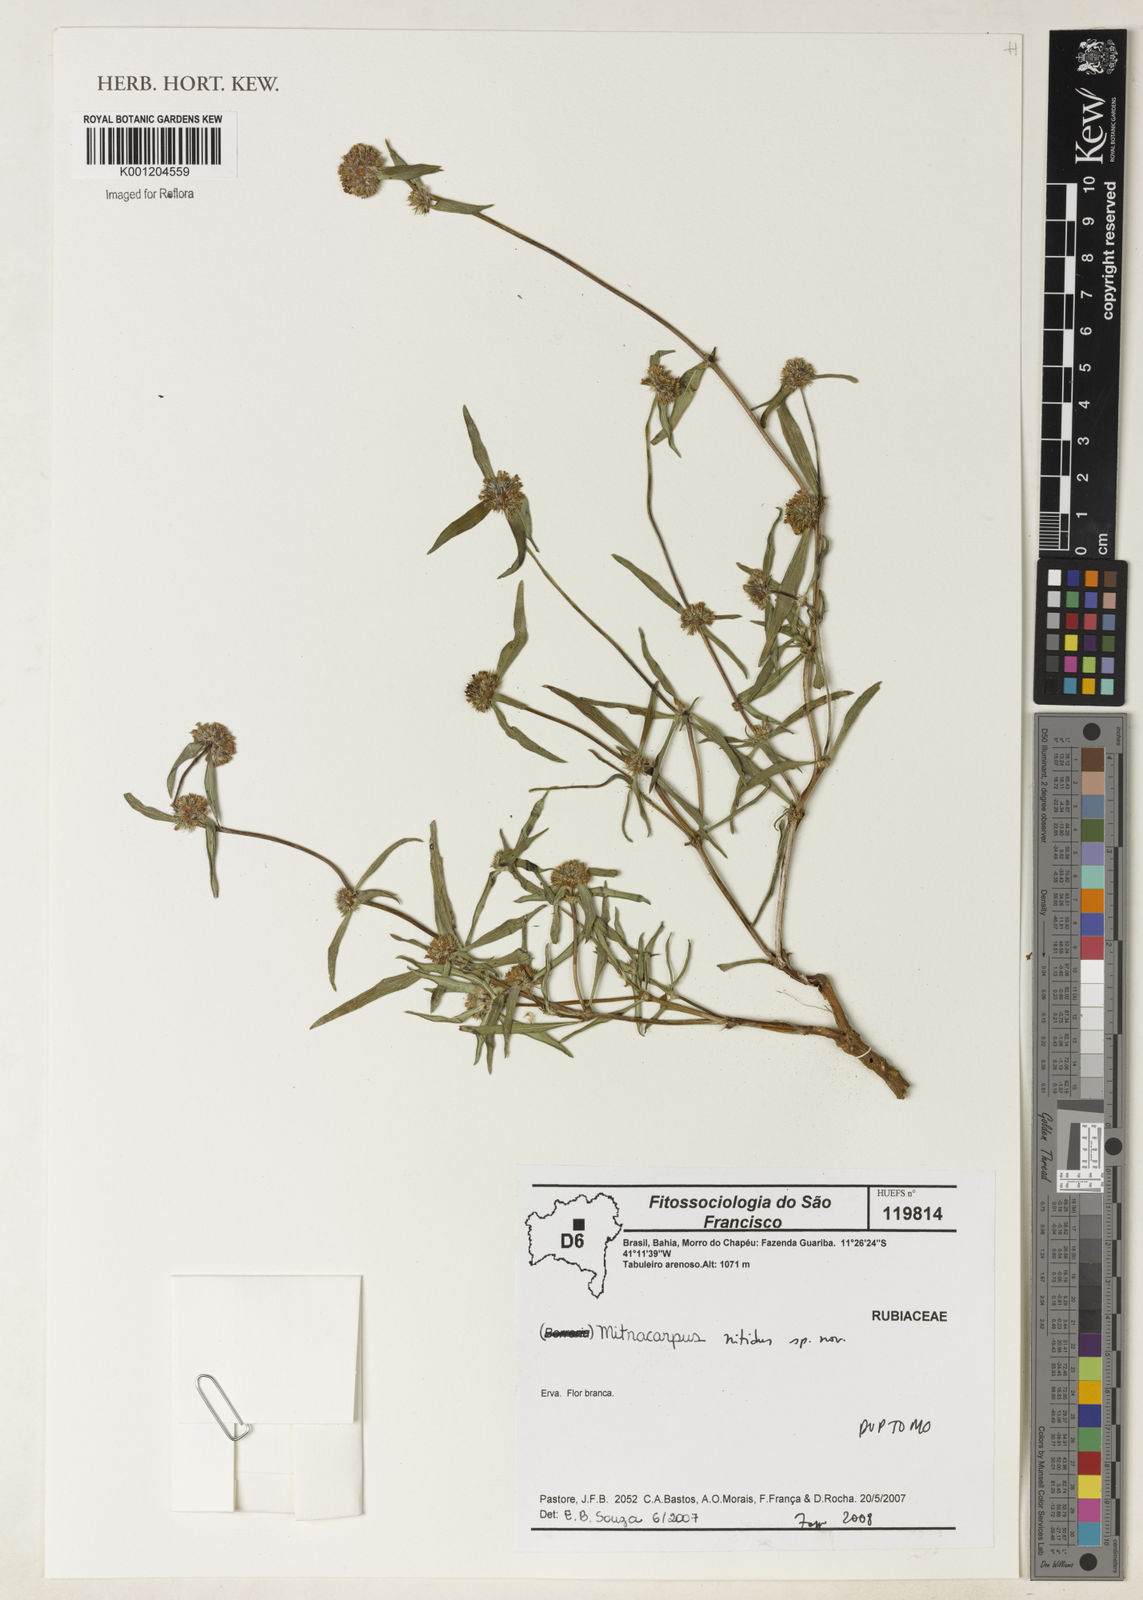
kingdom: Plantae
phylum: Tracheophyta
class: Magnoliopsida
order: Gentianales
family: Rubiaceae
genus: Mitracarpus
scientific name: Mitracarpus
